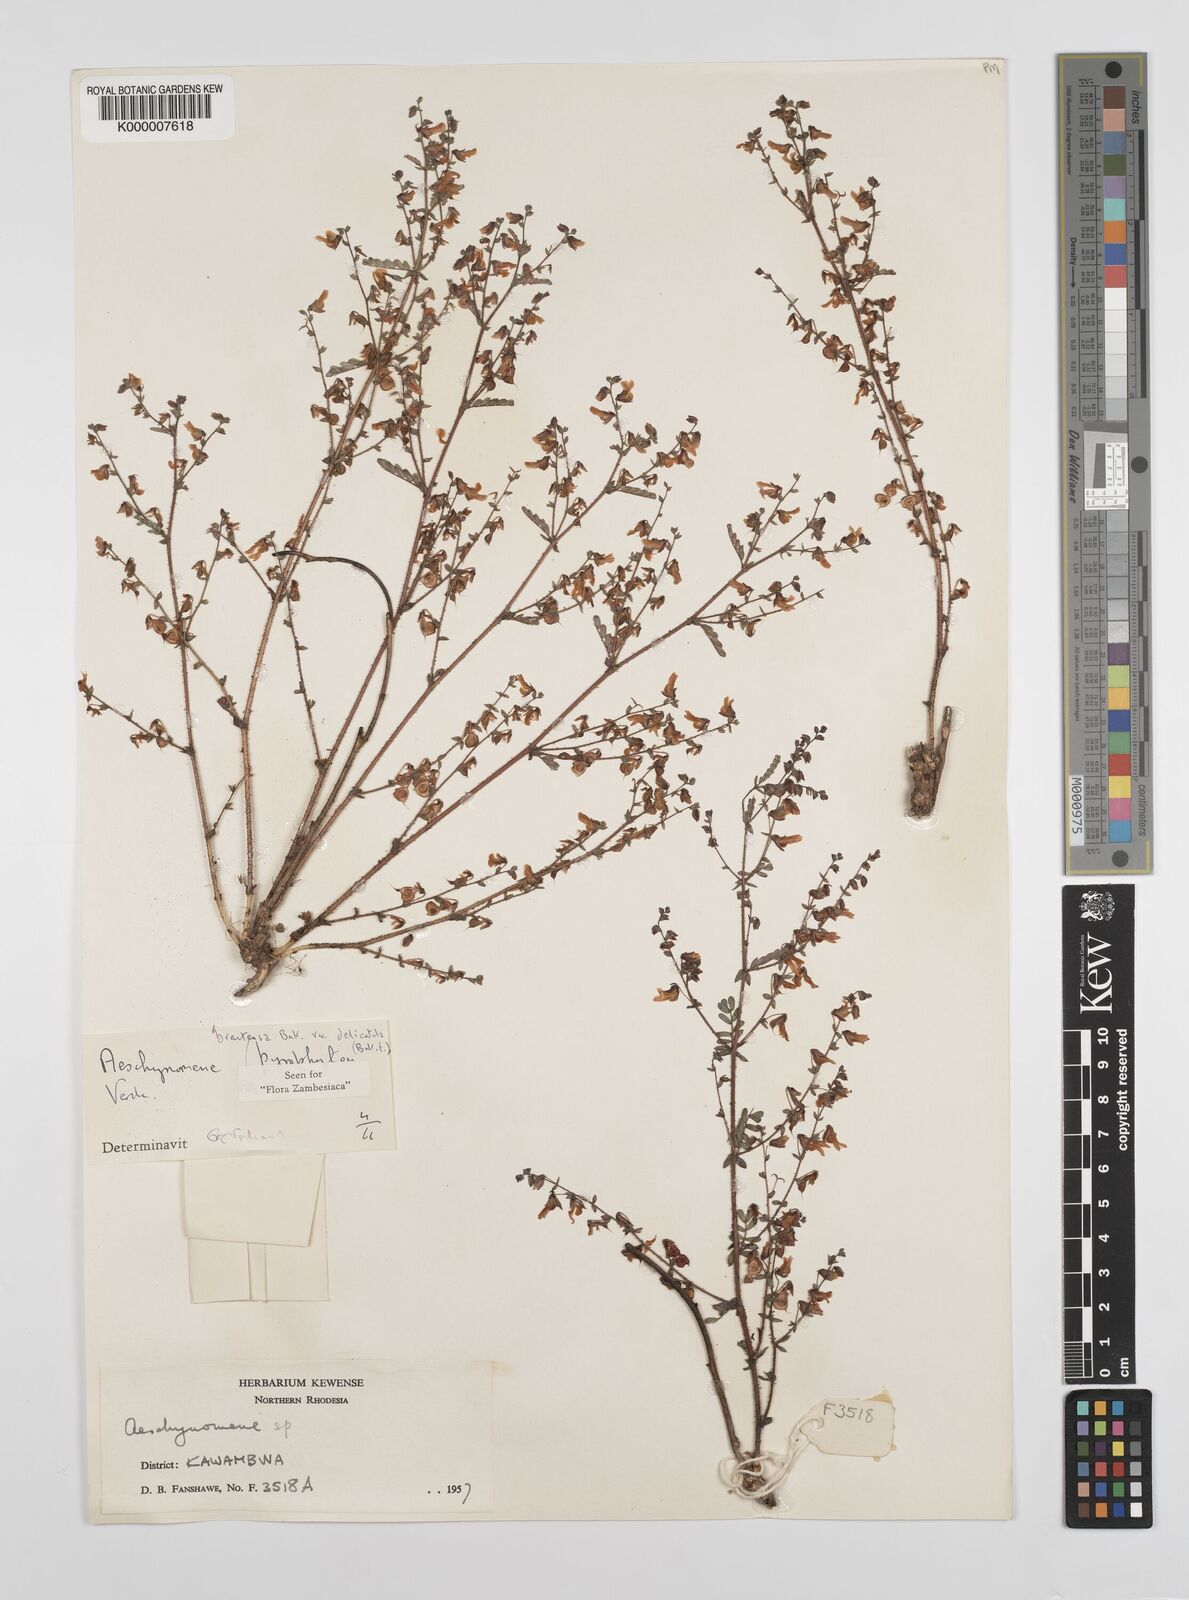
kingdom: Plantae
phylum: Tracheophyta
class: Magnoliopsida
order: Fabales
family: Fabaceae
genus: Aeschynomene
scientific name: Aeschynomene bracteosa
